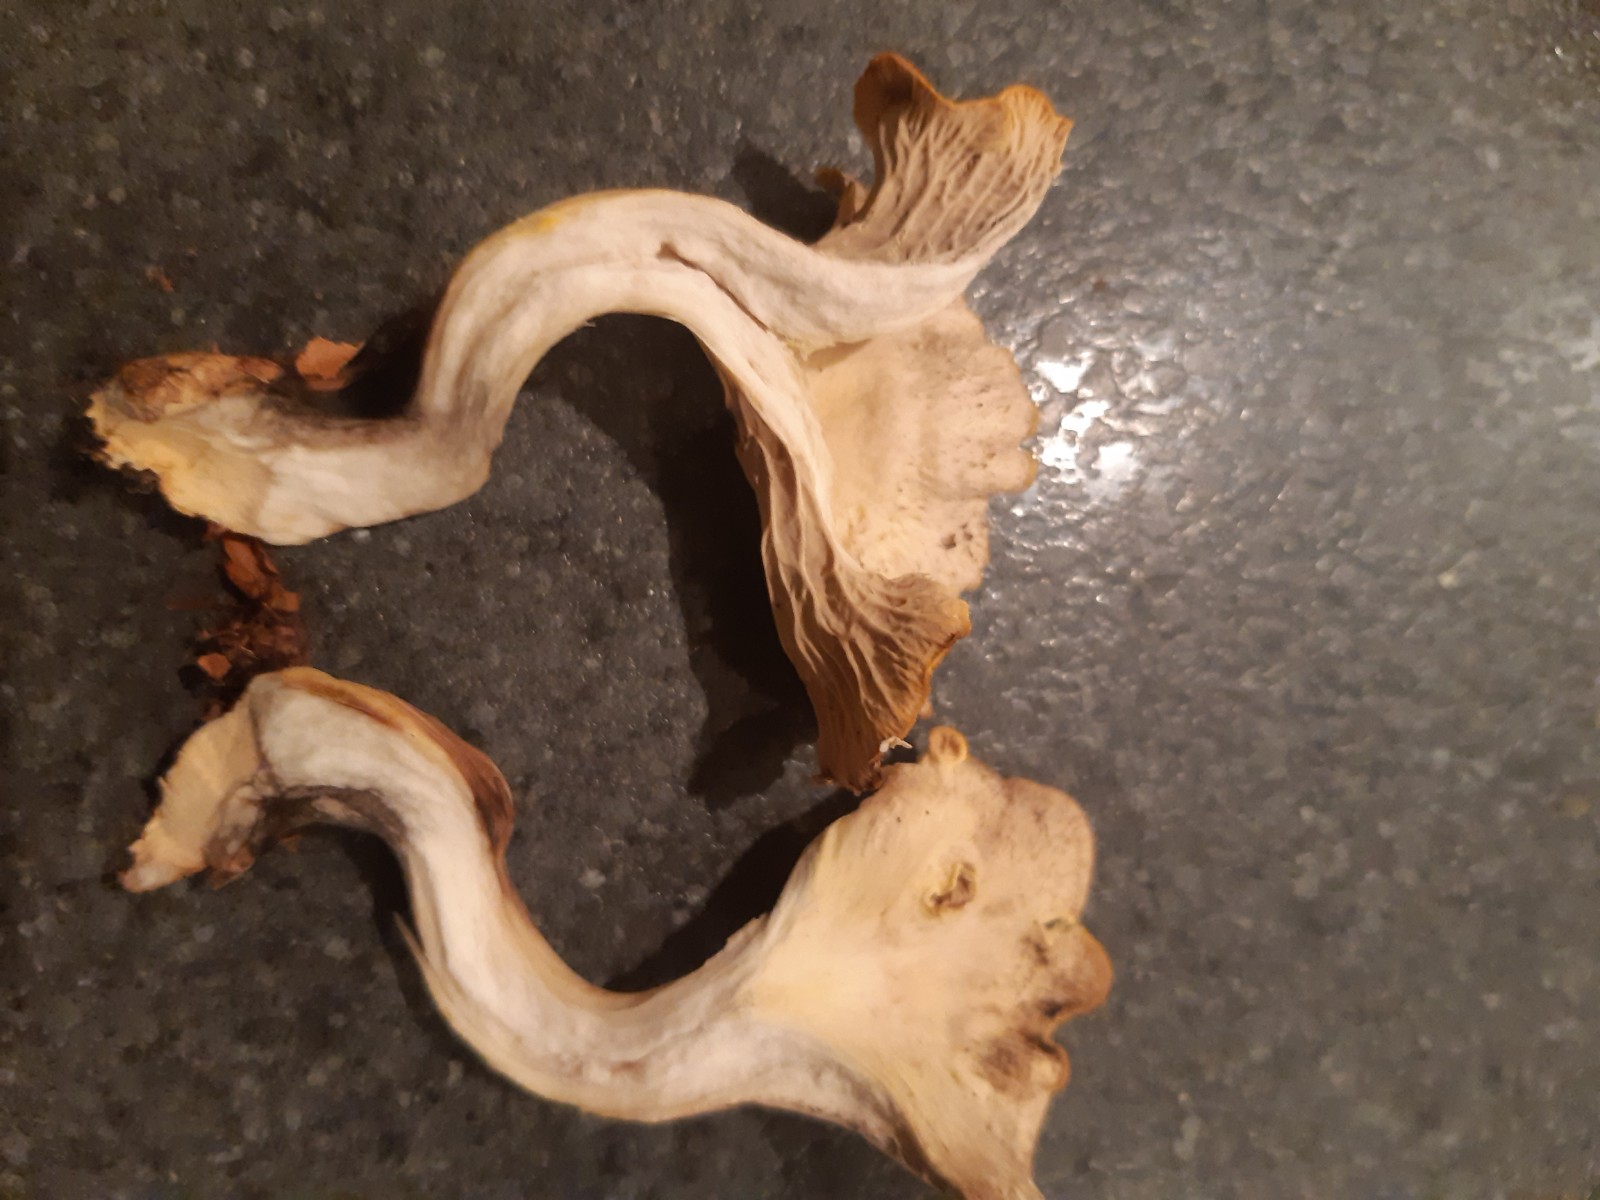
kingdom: Fungi
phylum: Basidiomycota
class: Agaricomycetes
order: Cantharellales
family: Hydnaceae
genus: Cantharellus
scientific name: Cantharellus melanoxeros
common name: sværtende kantarel
